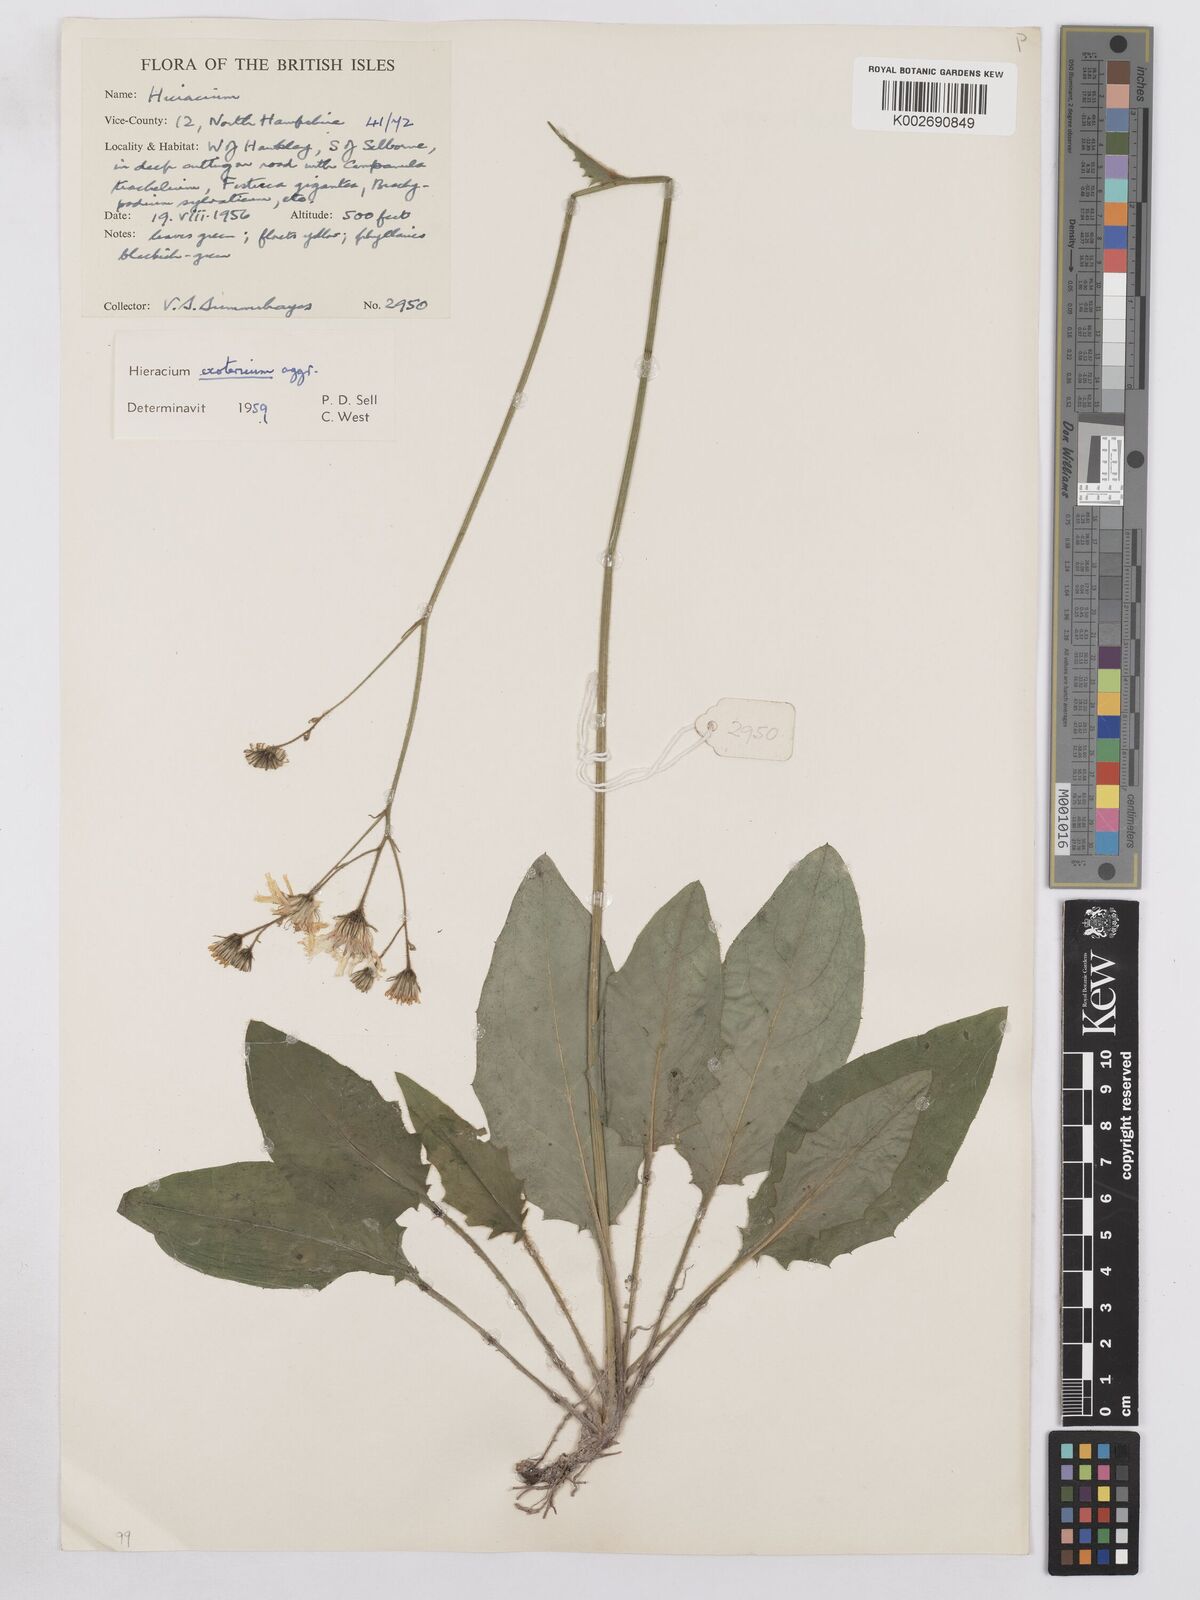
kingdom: Plantae
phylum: Tracheophyta
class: Magnoliopsida
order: Asterales
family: Asteraceae
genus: Hieracium
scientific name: Hieracium murorum
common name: Wall hawkweed
